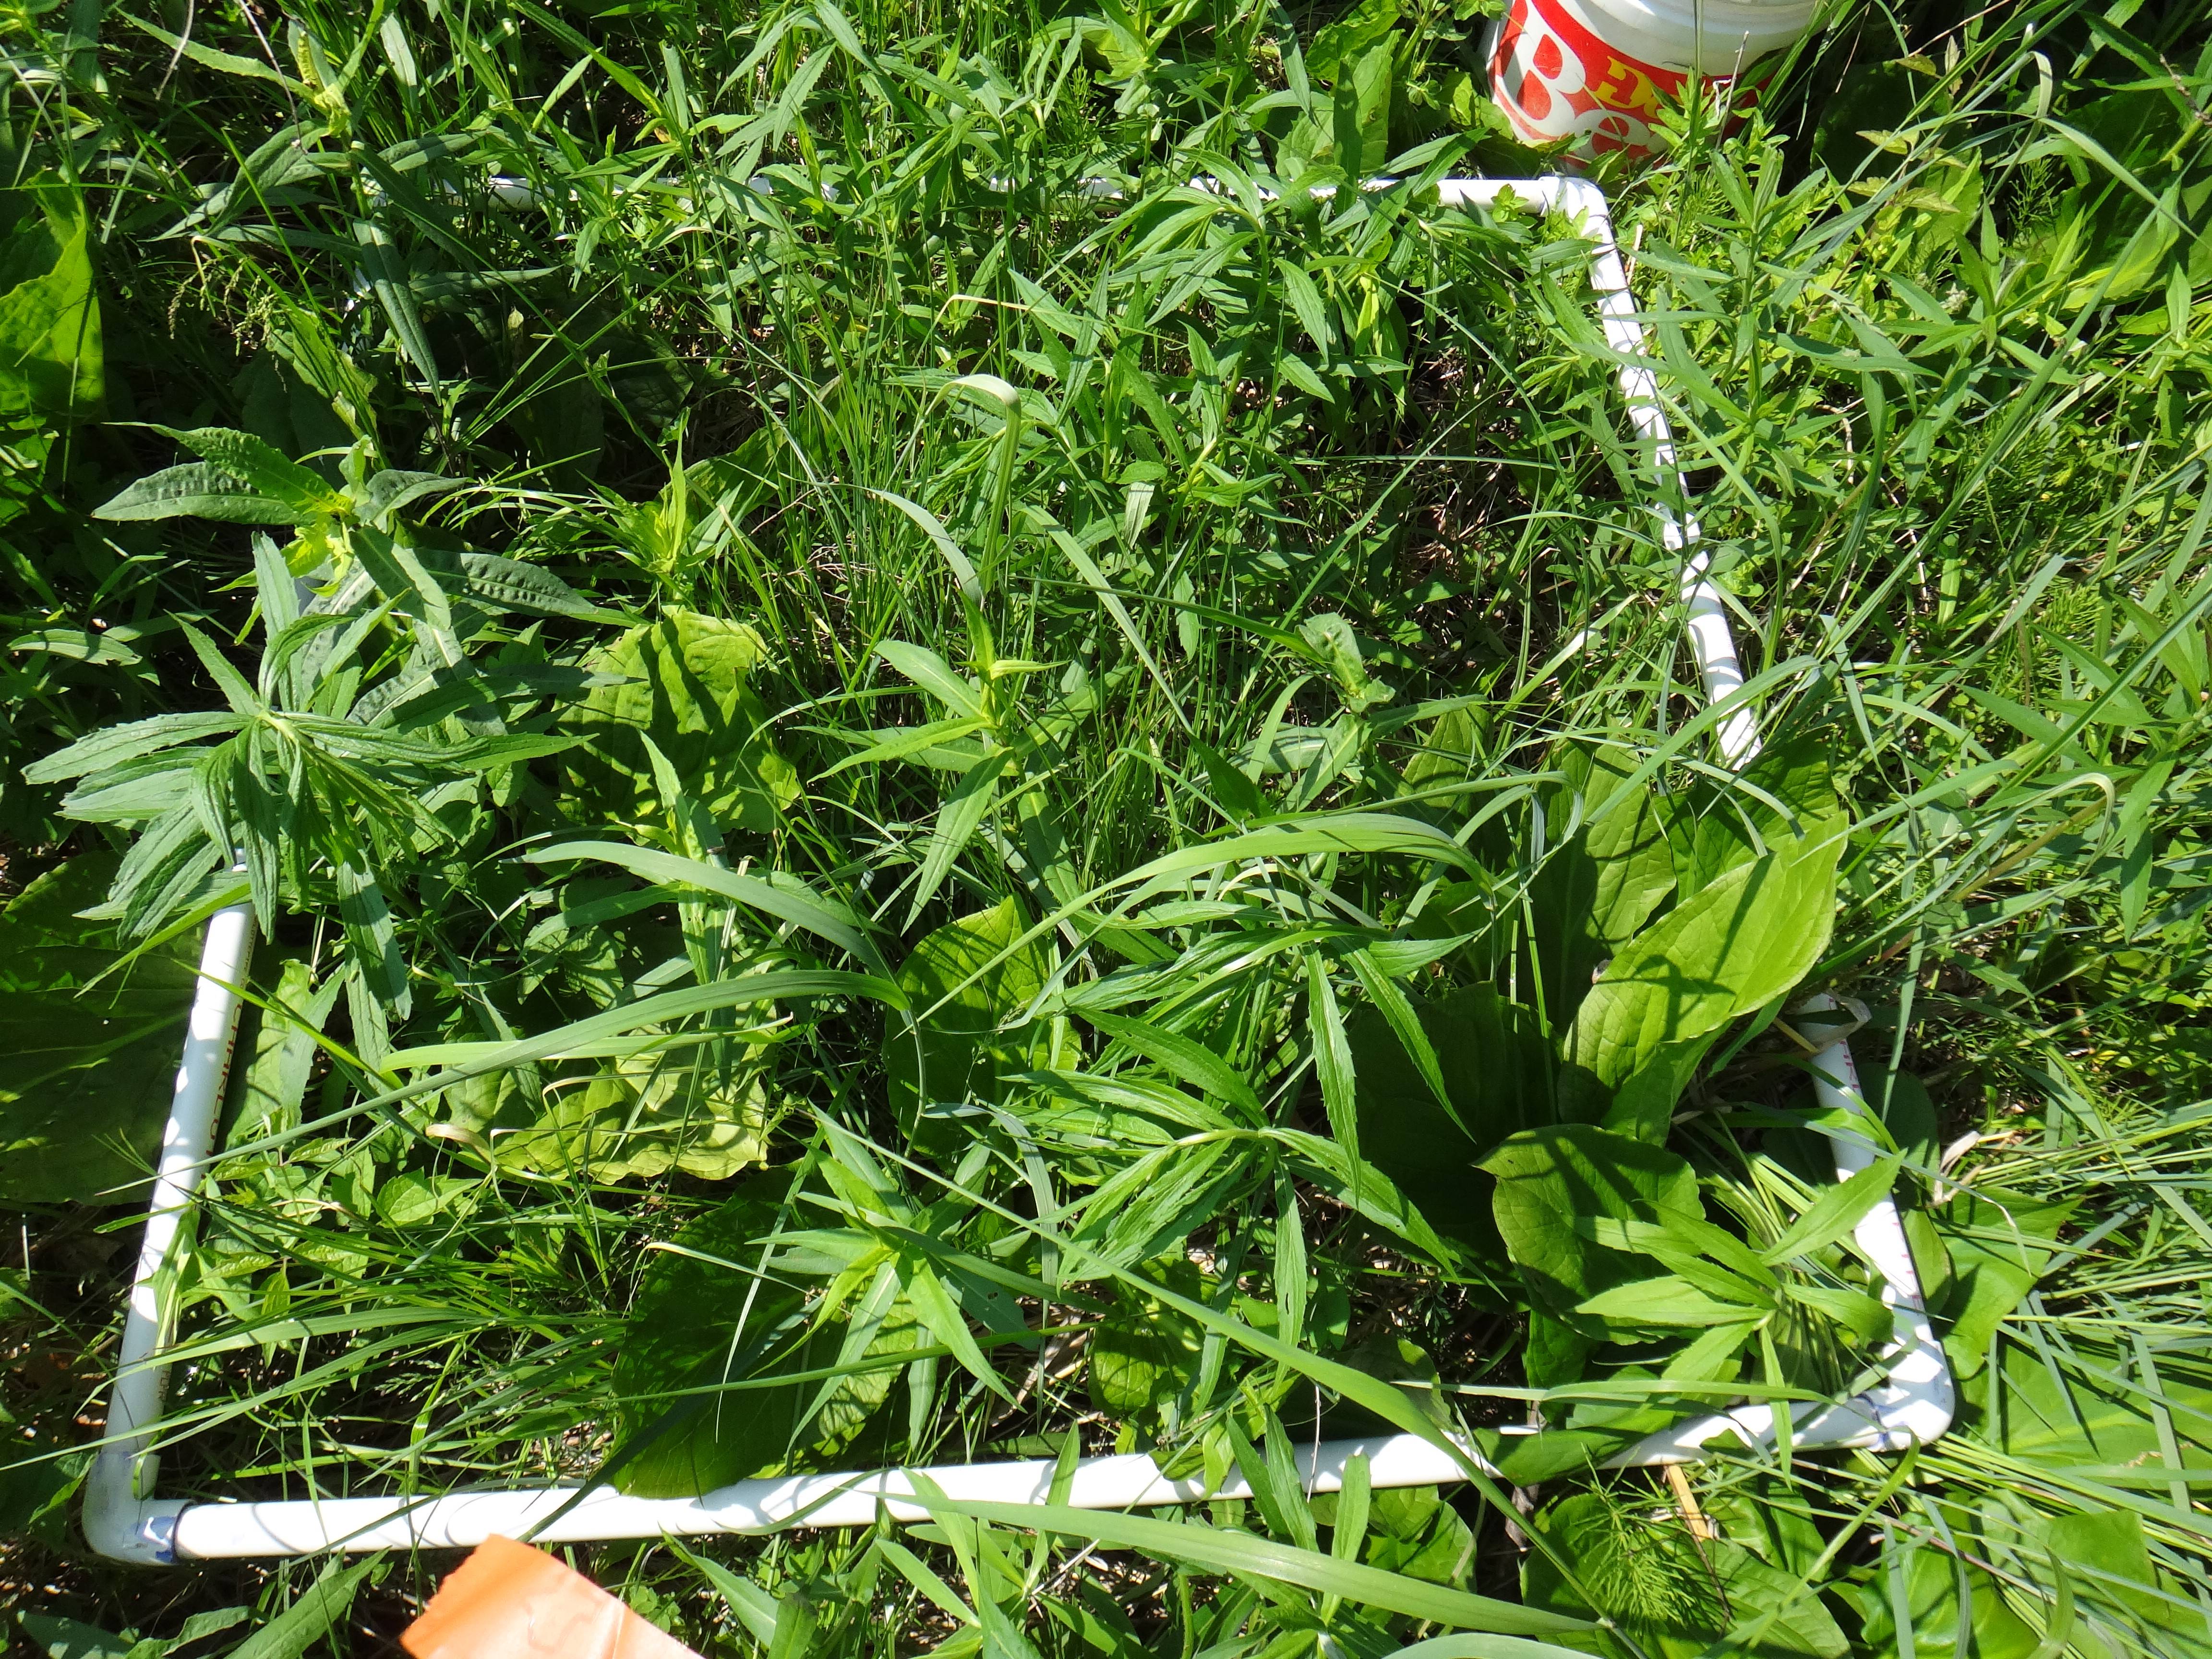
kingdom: Plantae
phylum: Tracheophyta
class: Liliopsida
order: Poales
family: Poaceae
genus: Glyceria
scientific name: Glyceria striata
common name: Fowl manna grass
